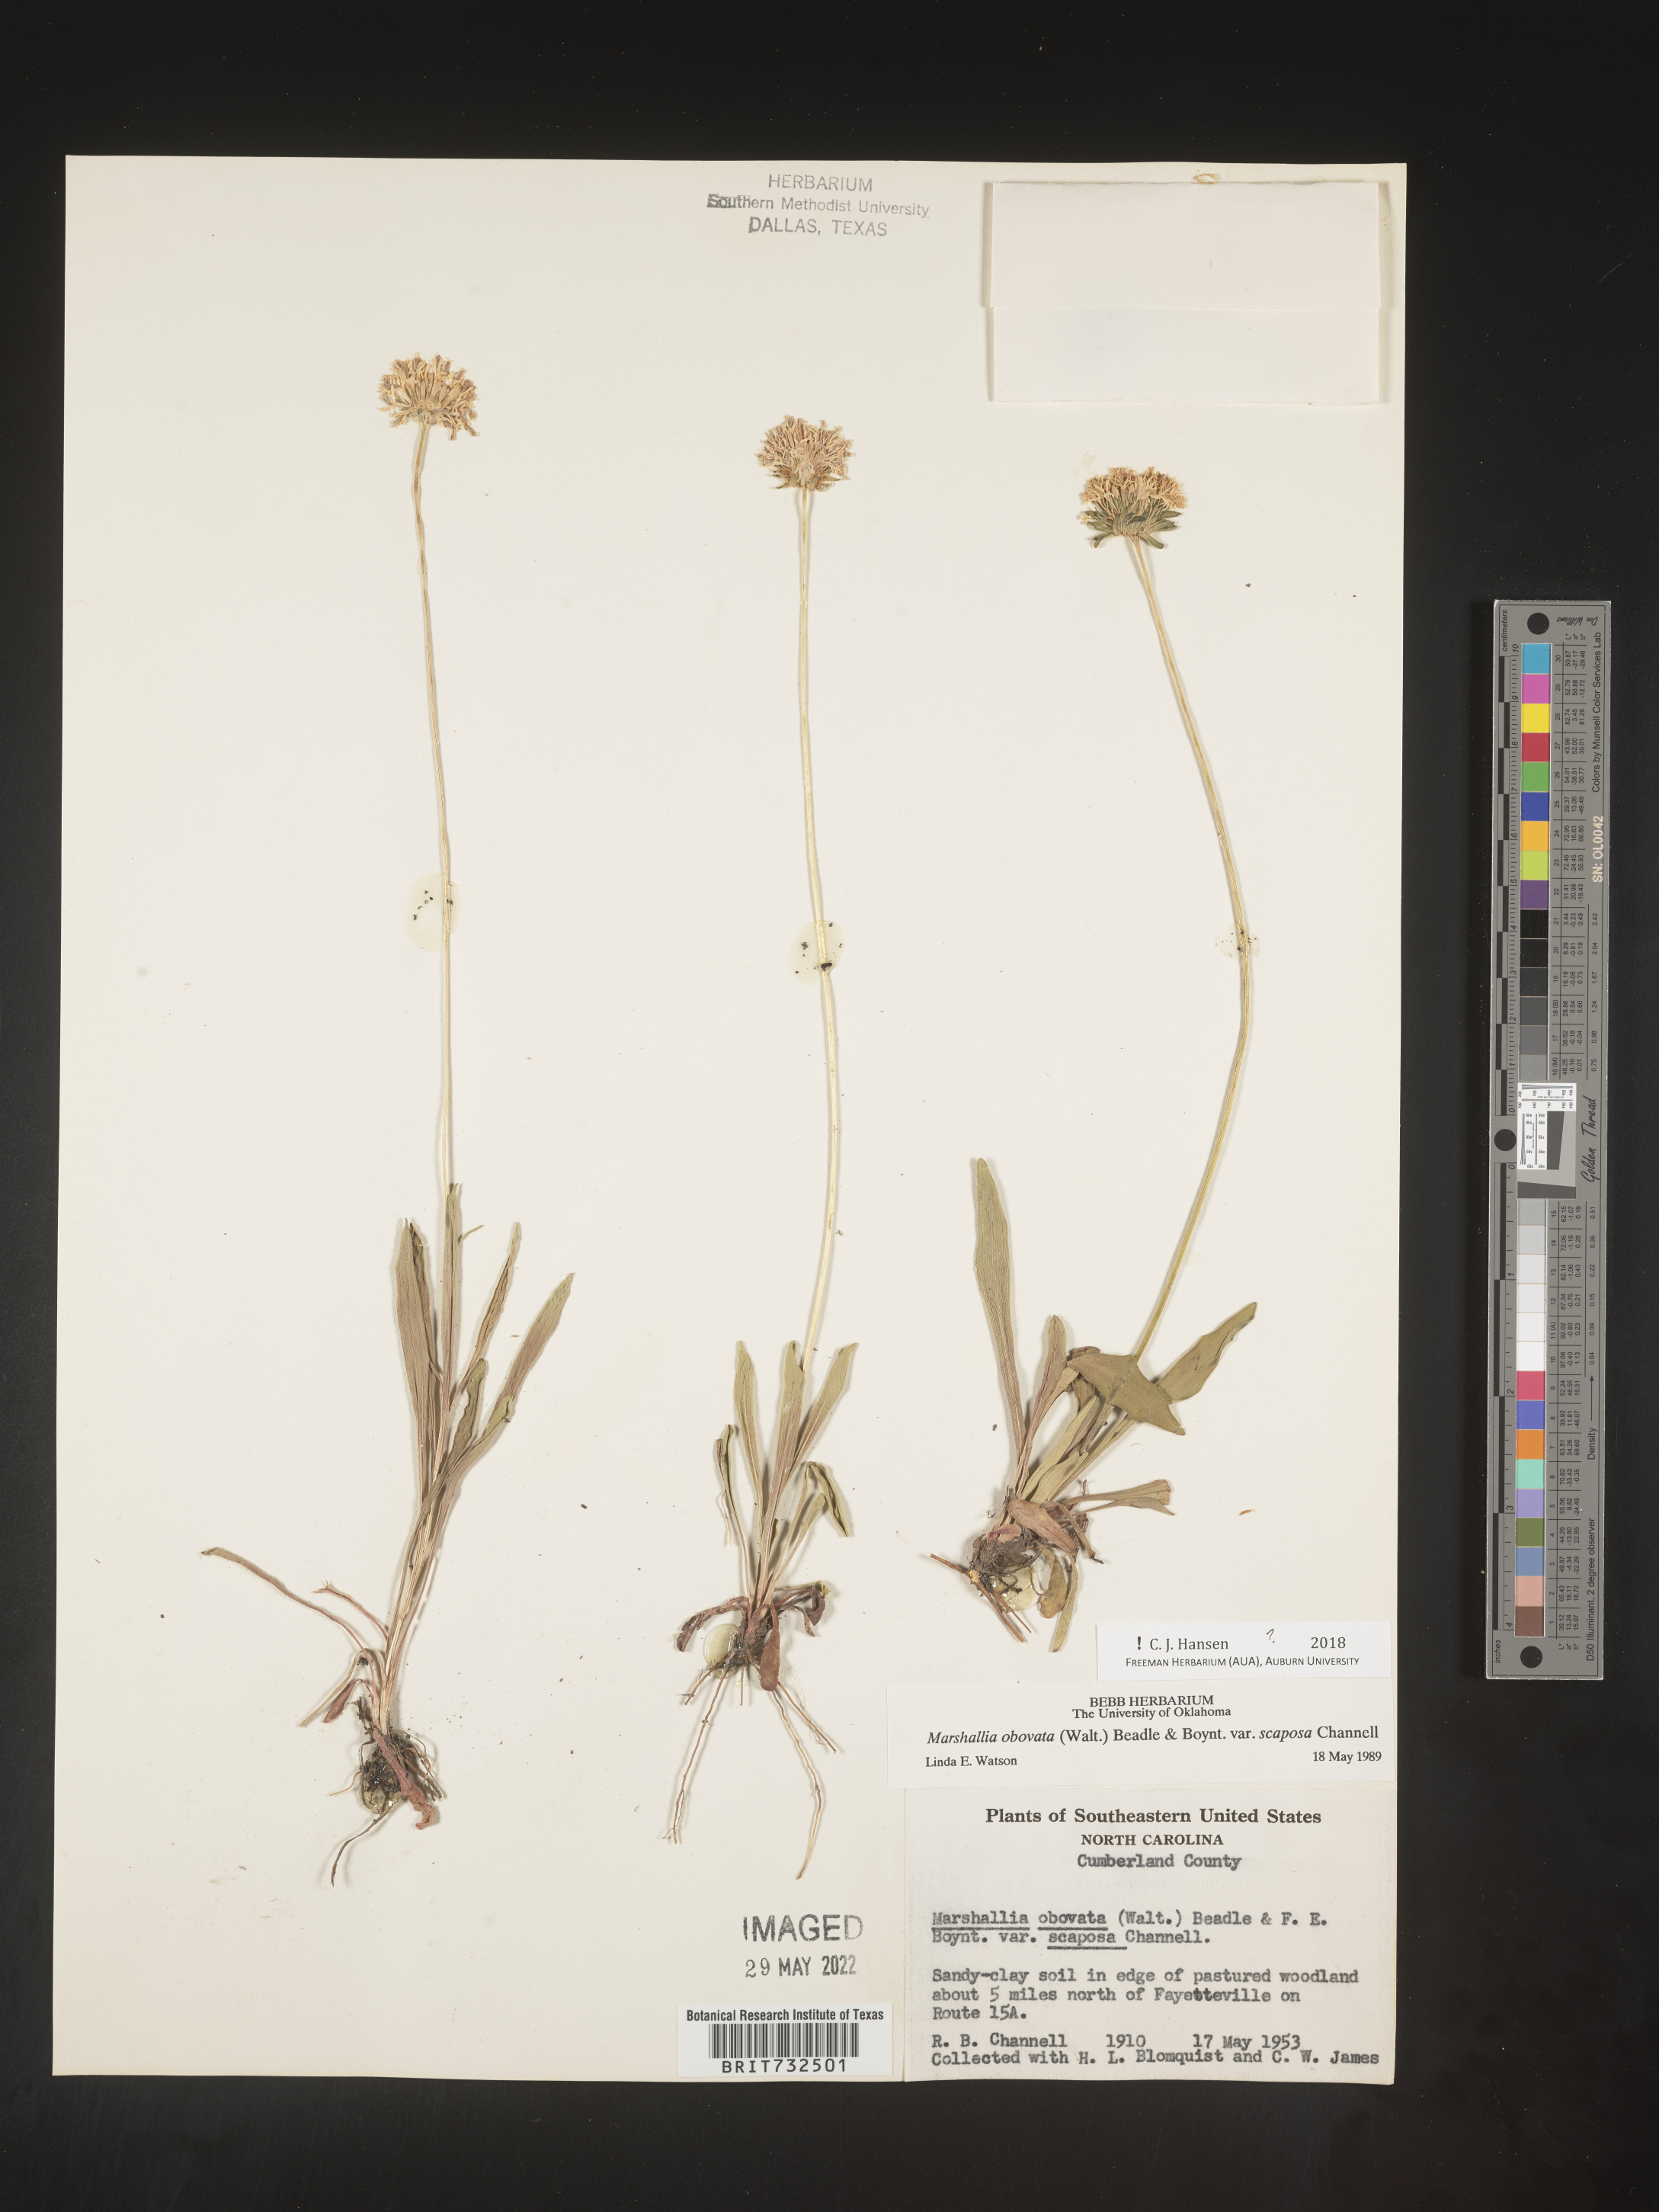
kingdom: Plantae
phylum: Tracheophyta
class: Magnoliopsida
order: Asterales
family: Asteraceae
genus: Marshallia
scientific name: Marshallia obovata
